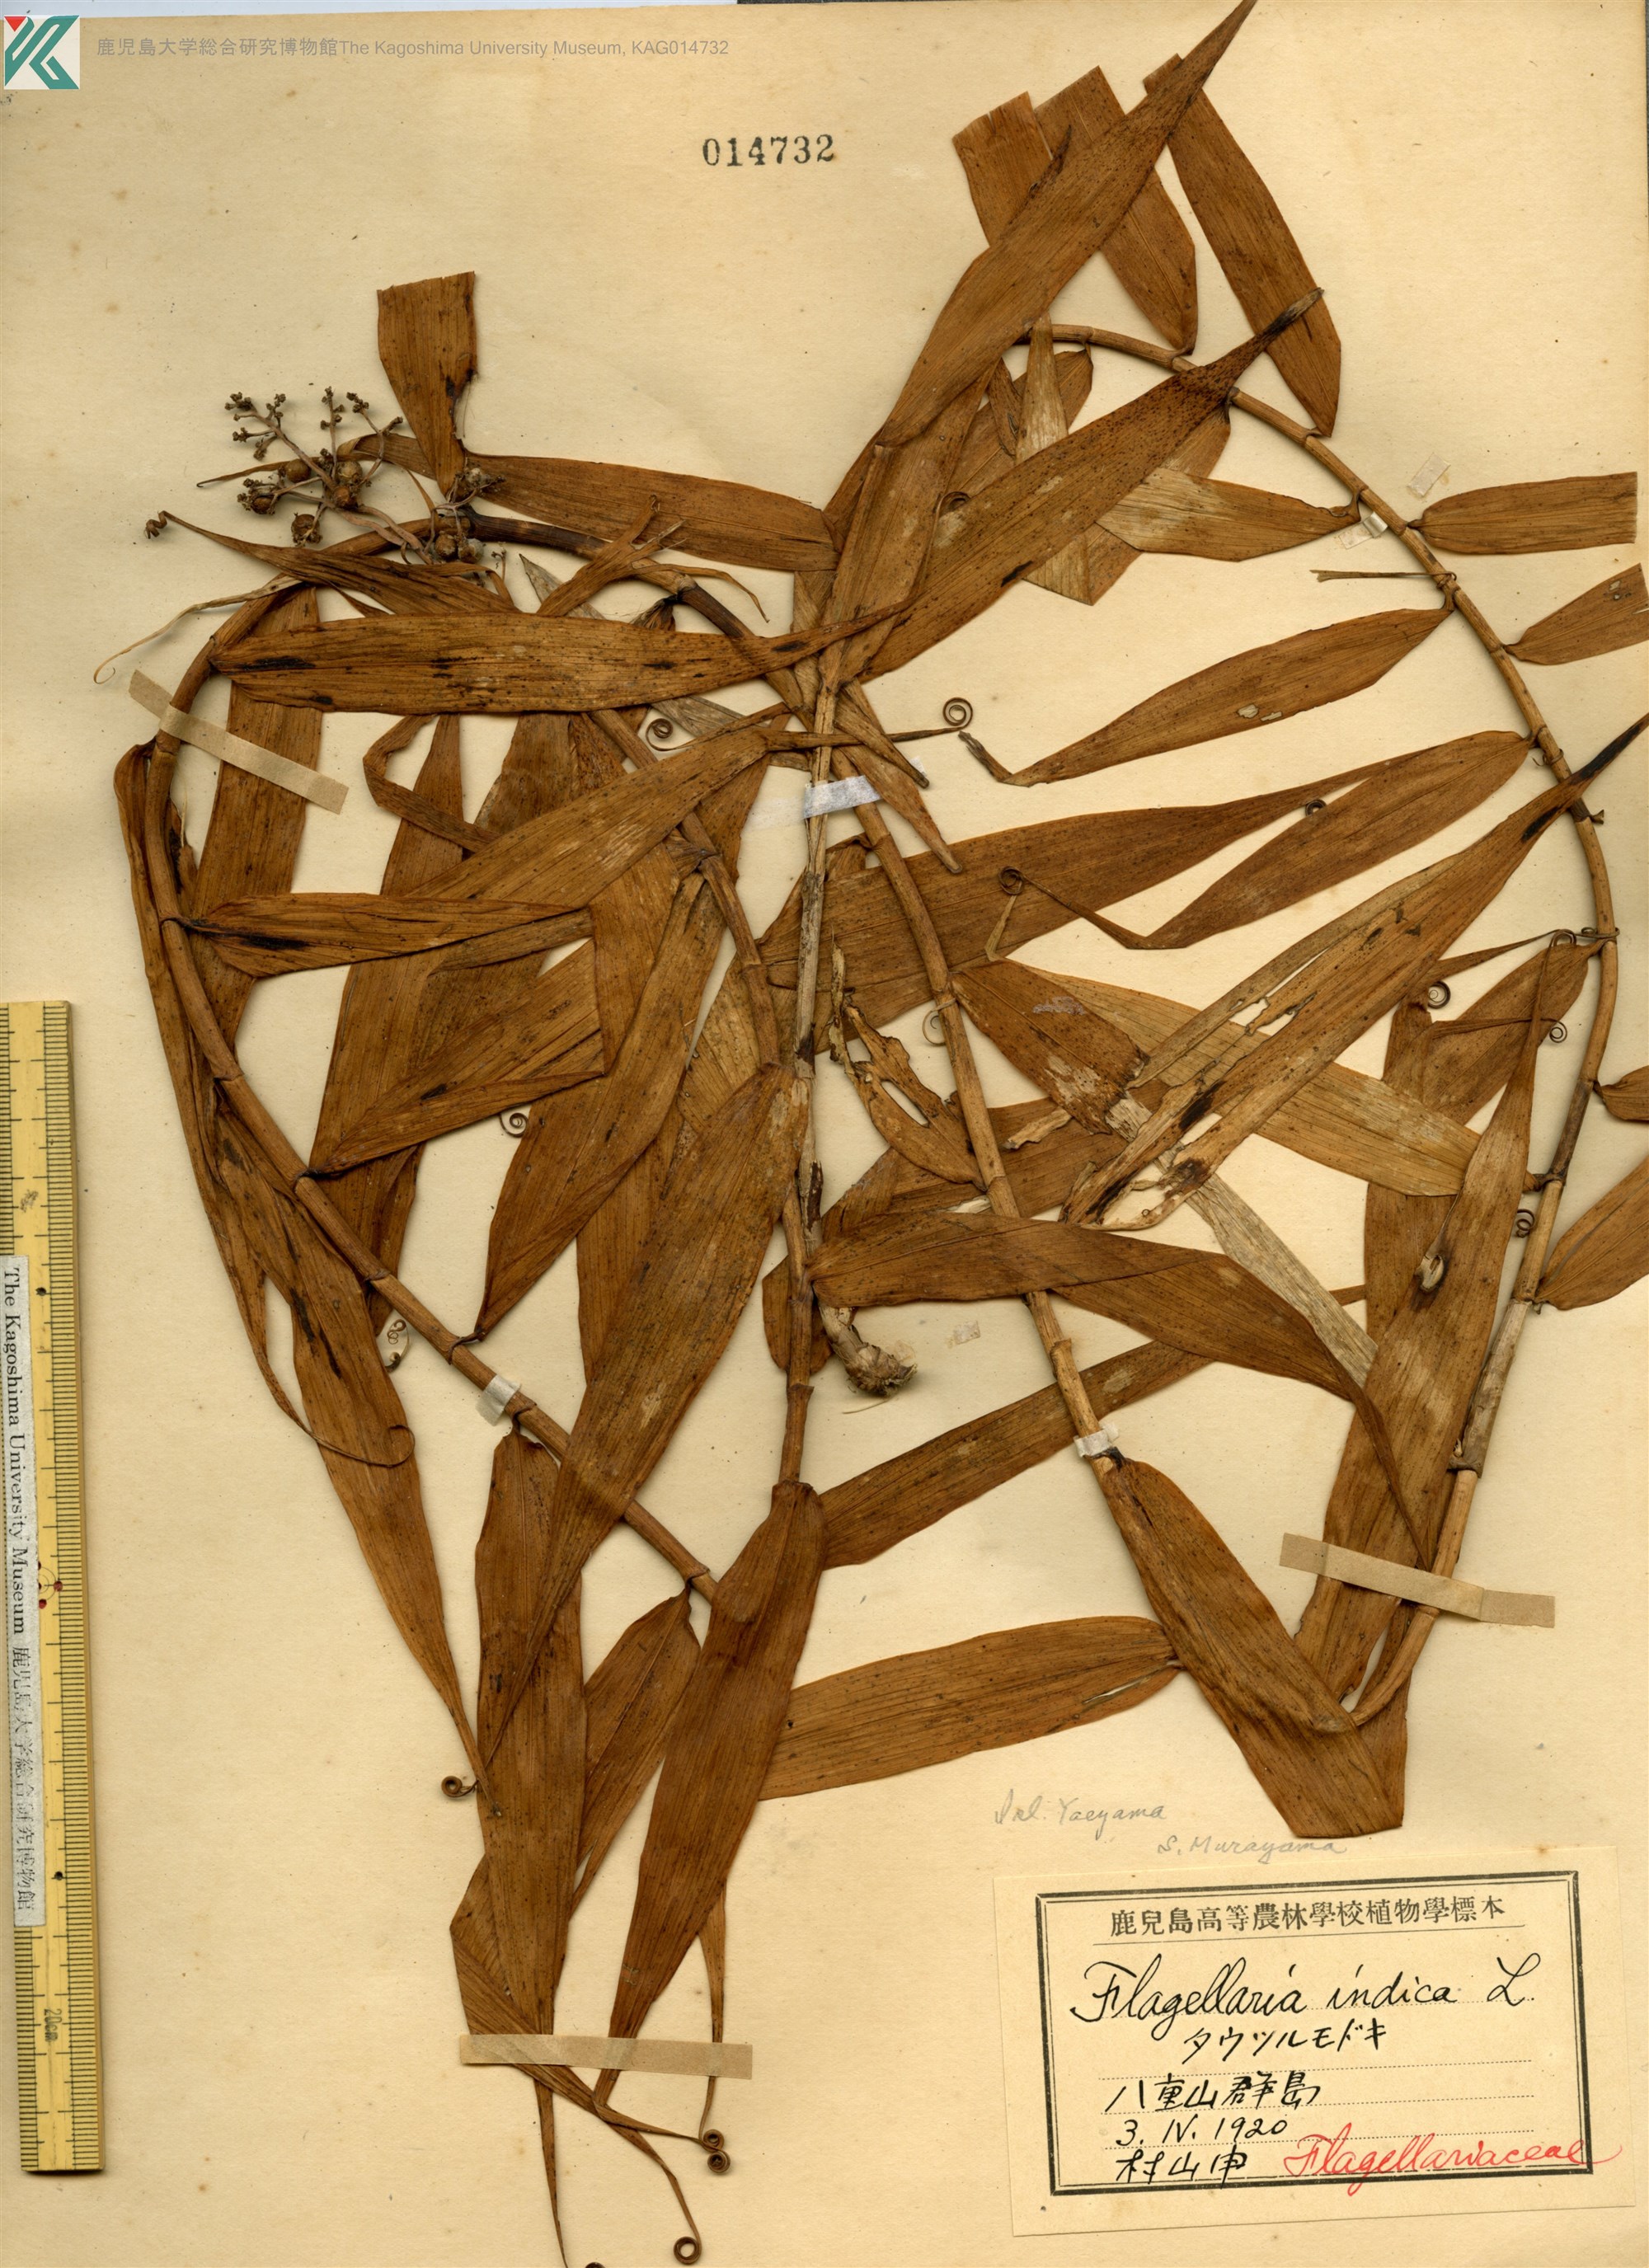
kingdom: Plantae
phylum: Tracheophyta
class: Liliopsida
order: Poales
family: Flagellariaceae
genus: Flagellaria
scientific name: Flagellaria indica
